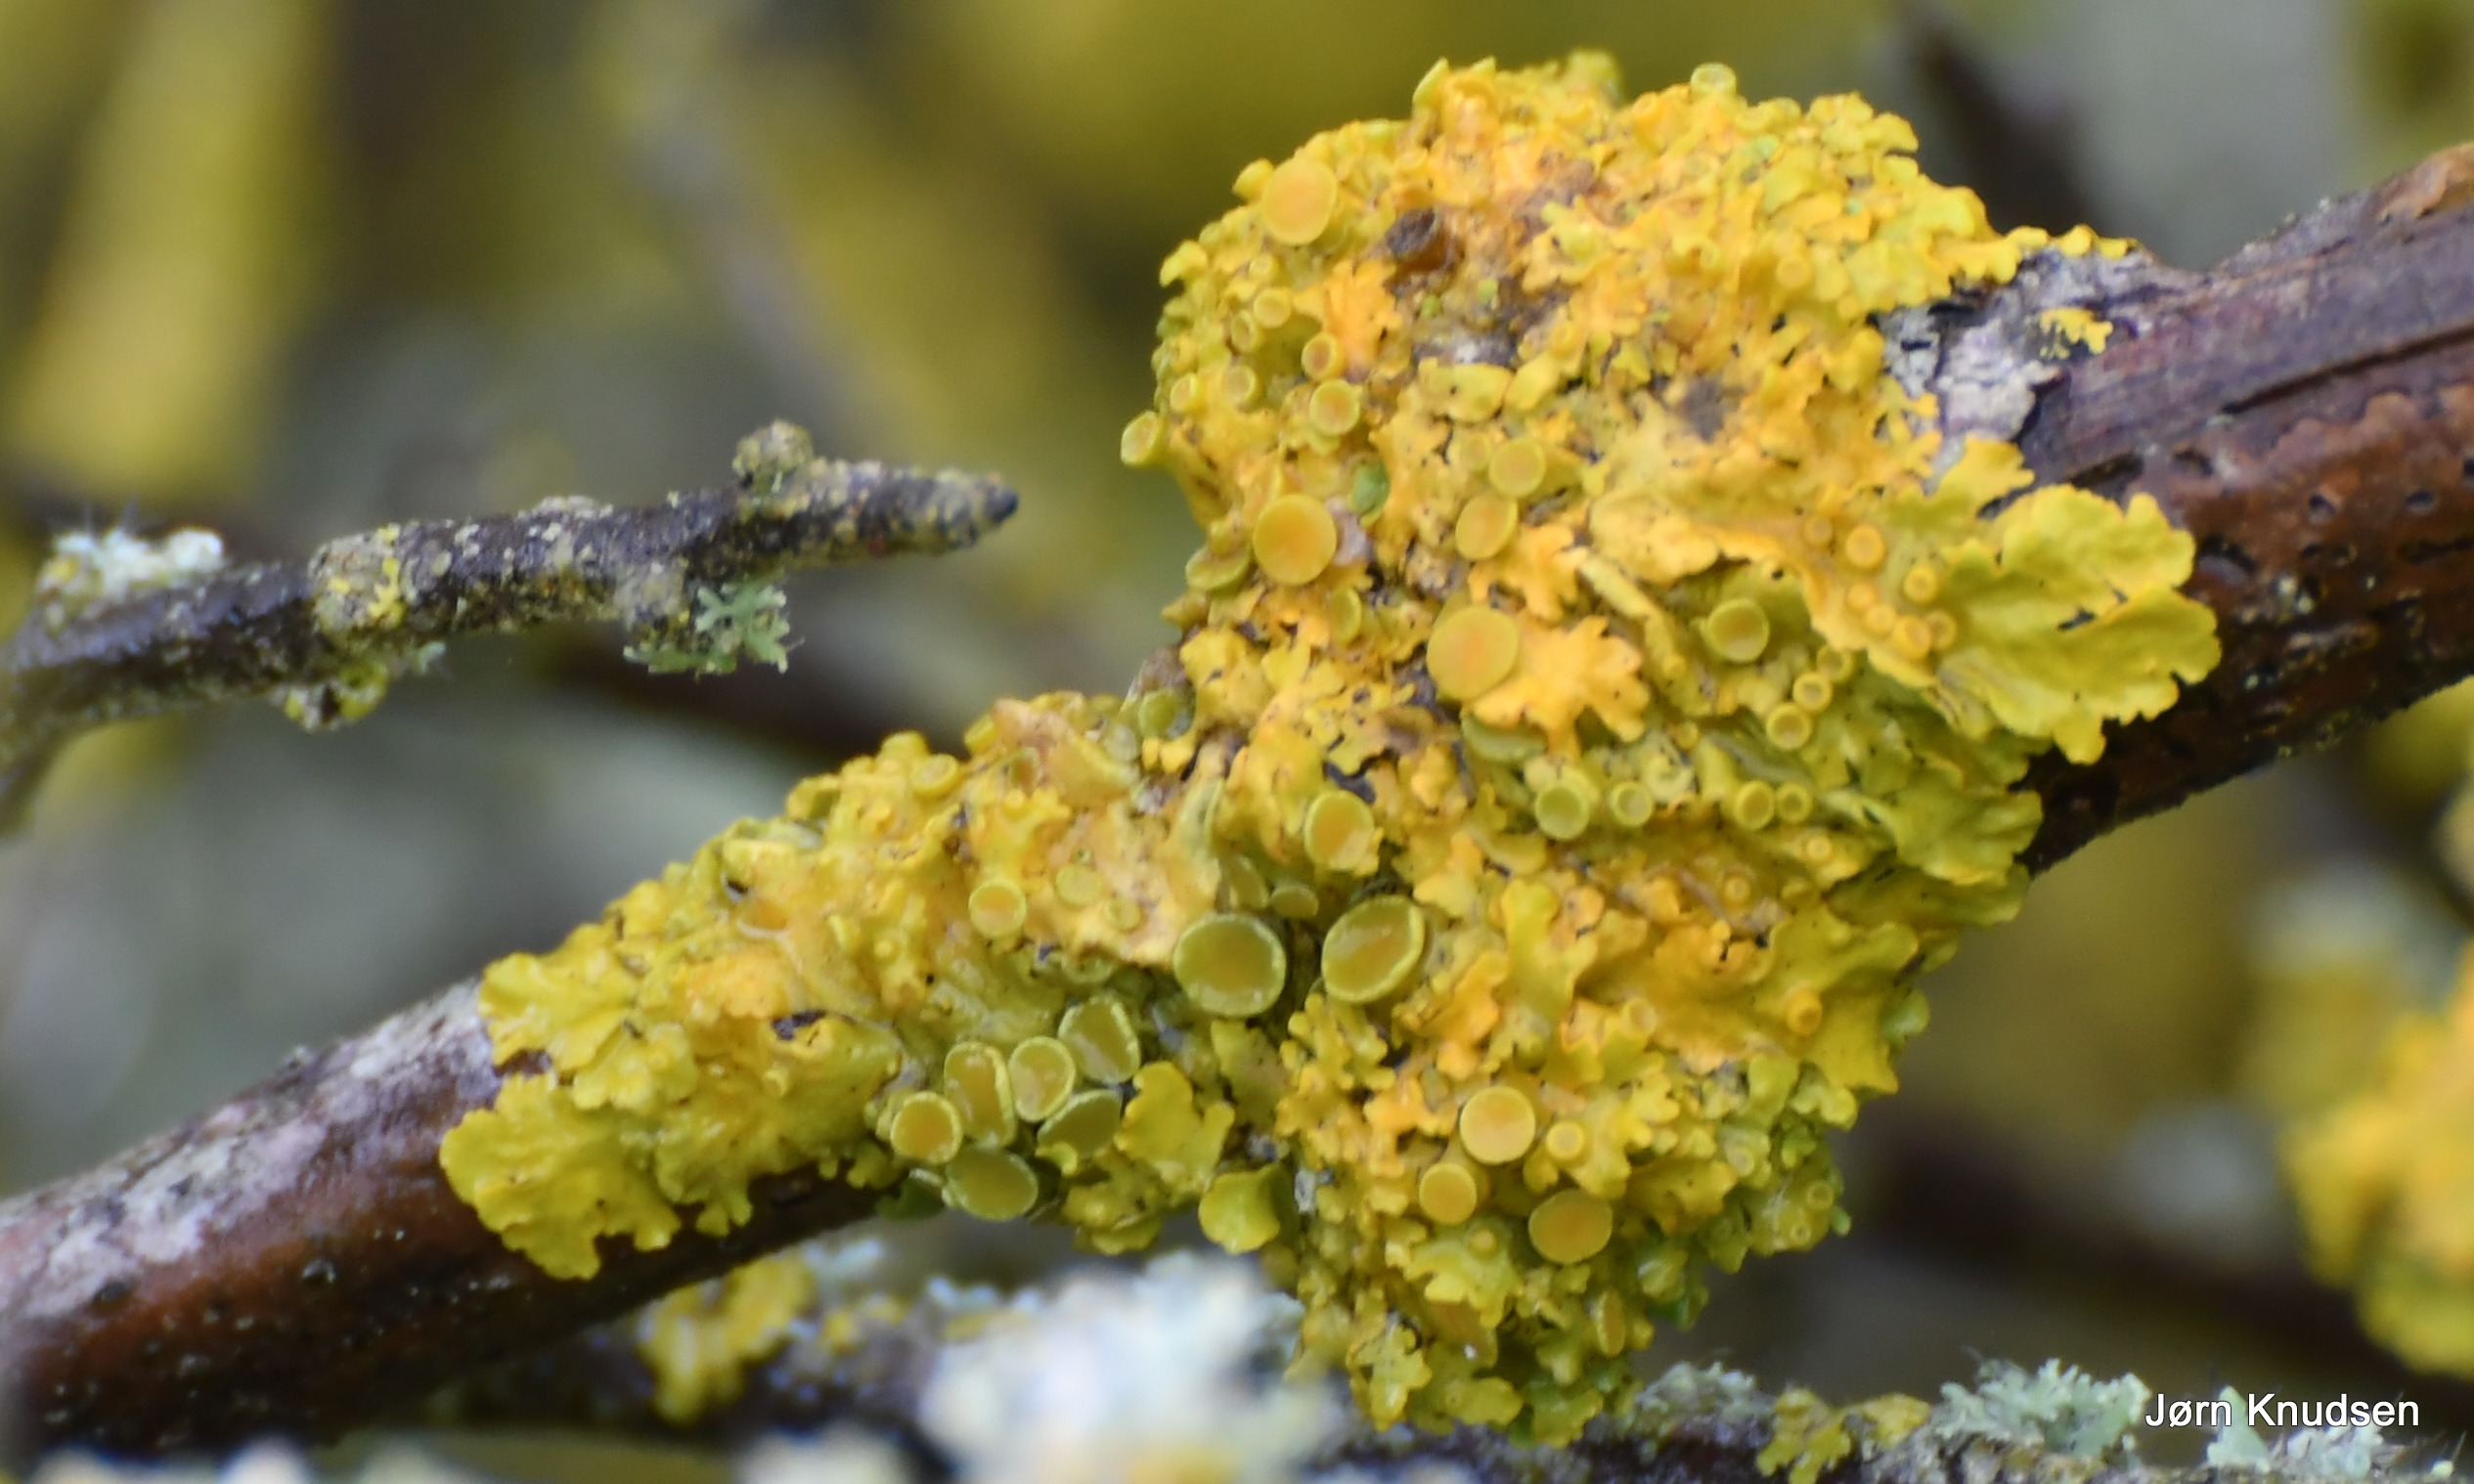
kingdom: Fungi
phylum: Ascomycota
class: Lecanoromycetes
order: Teloschistales
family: Teloschistaceae
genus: Xanthoria
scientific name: Xanthoria parietina
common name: Almindelig væggelav
